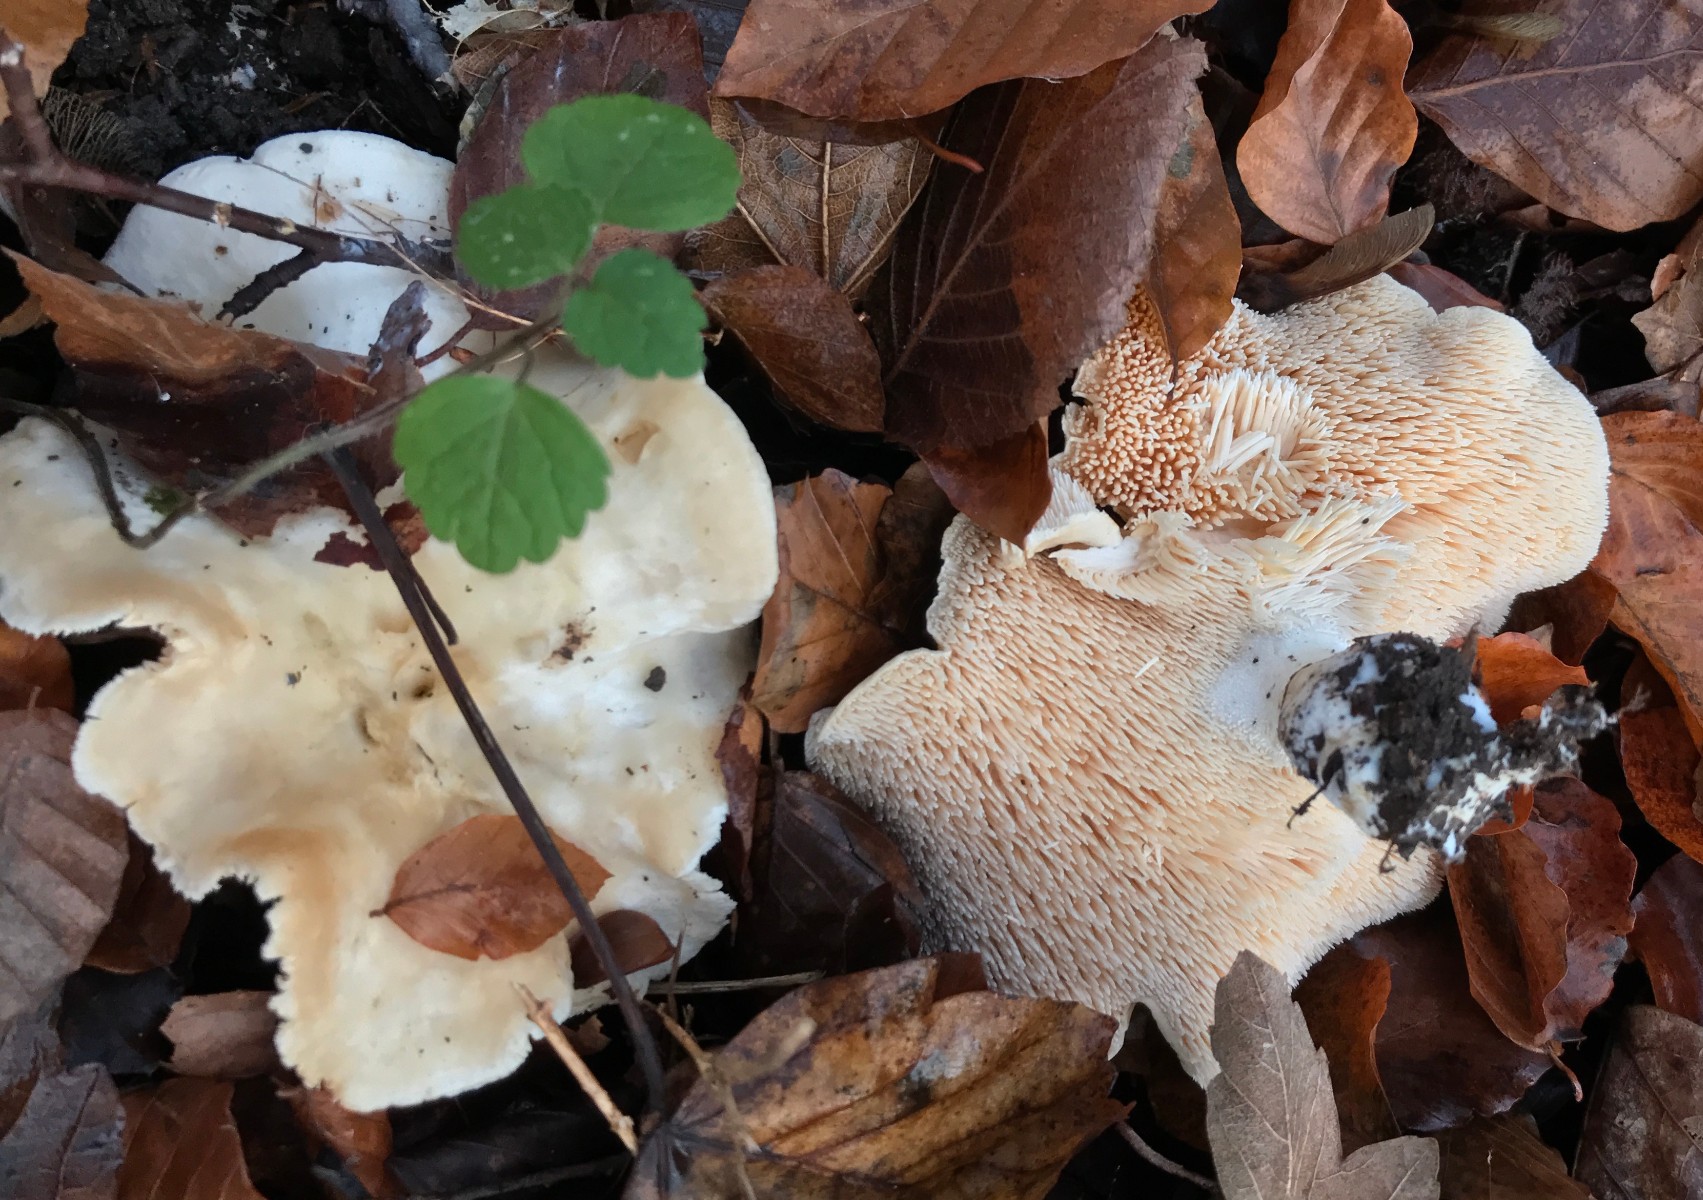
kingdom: Fungi
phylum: Basidiomycota
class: Agaricomycetes
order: Cantharellales
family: Hydnaceae
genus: Hydnum
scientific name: Hydnum
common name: pigsvamp
